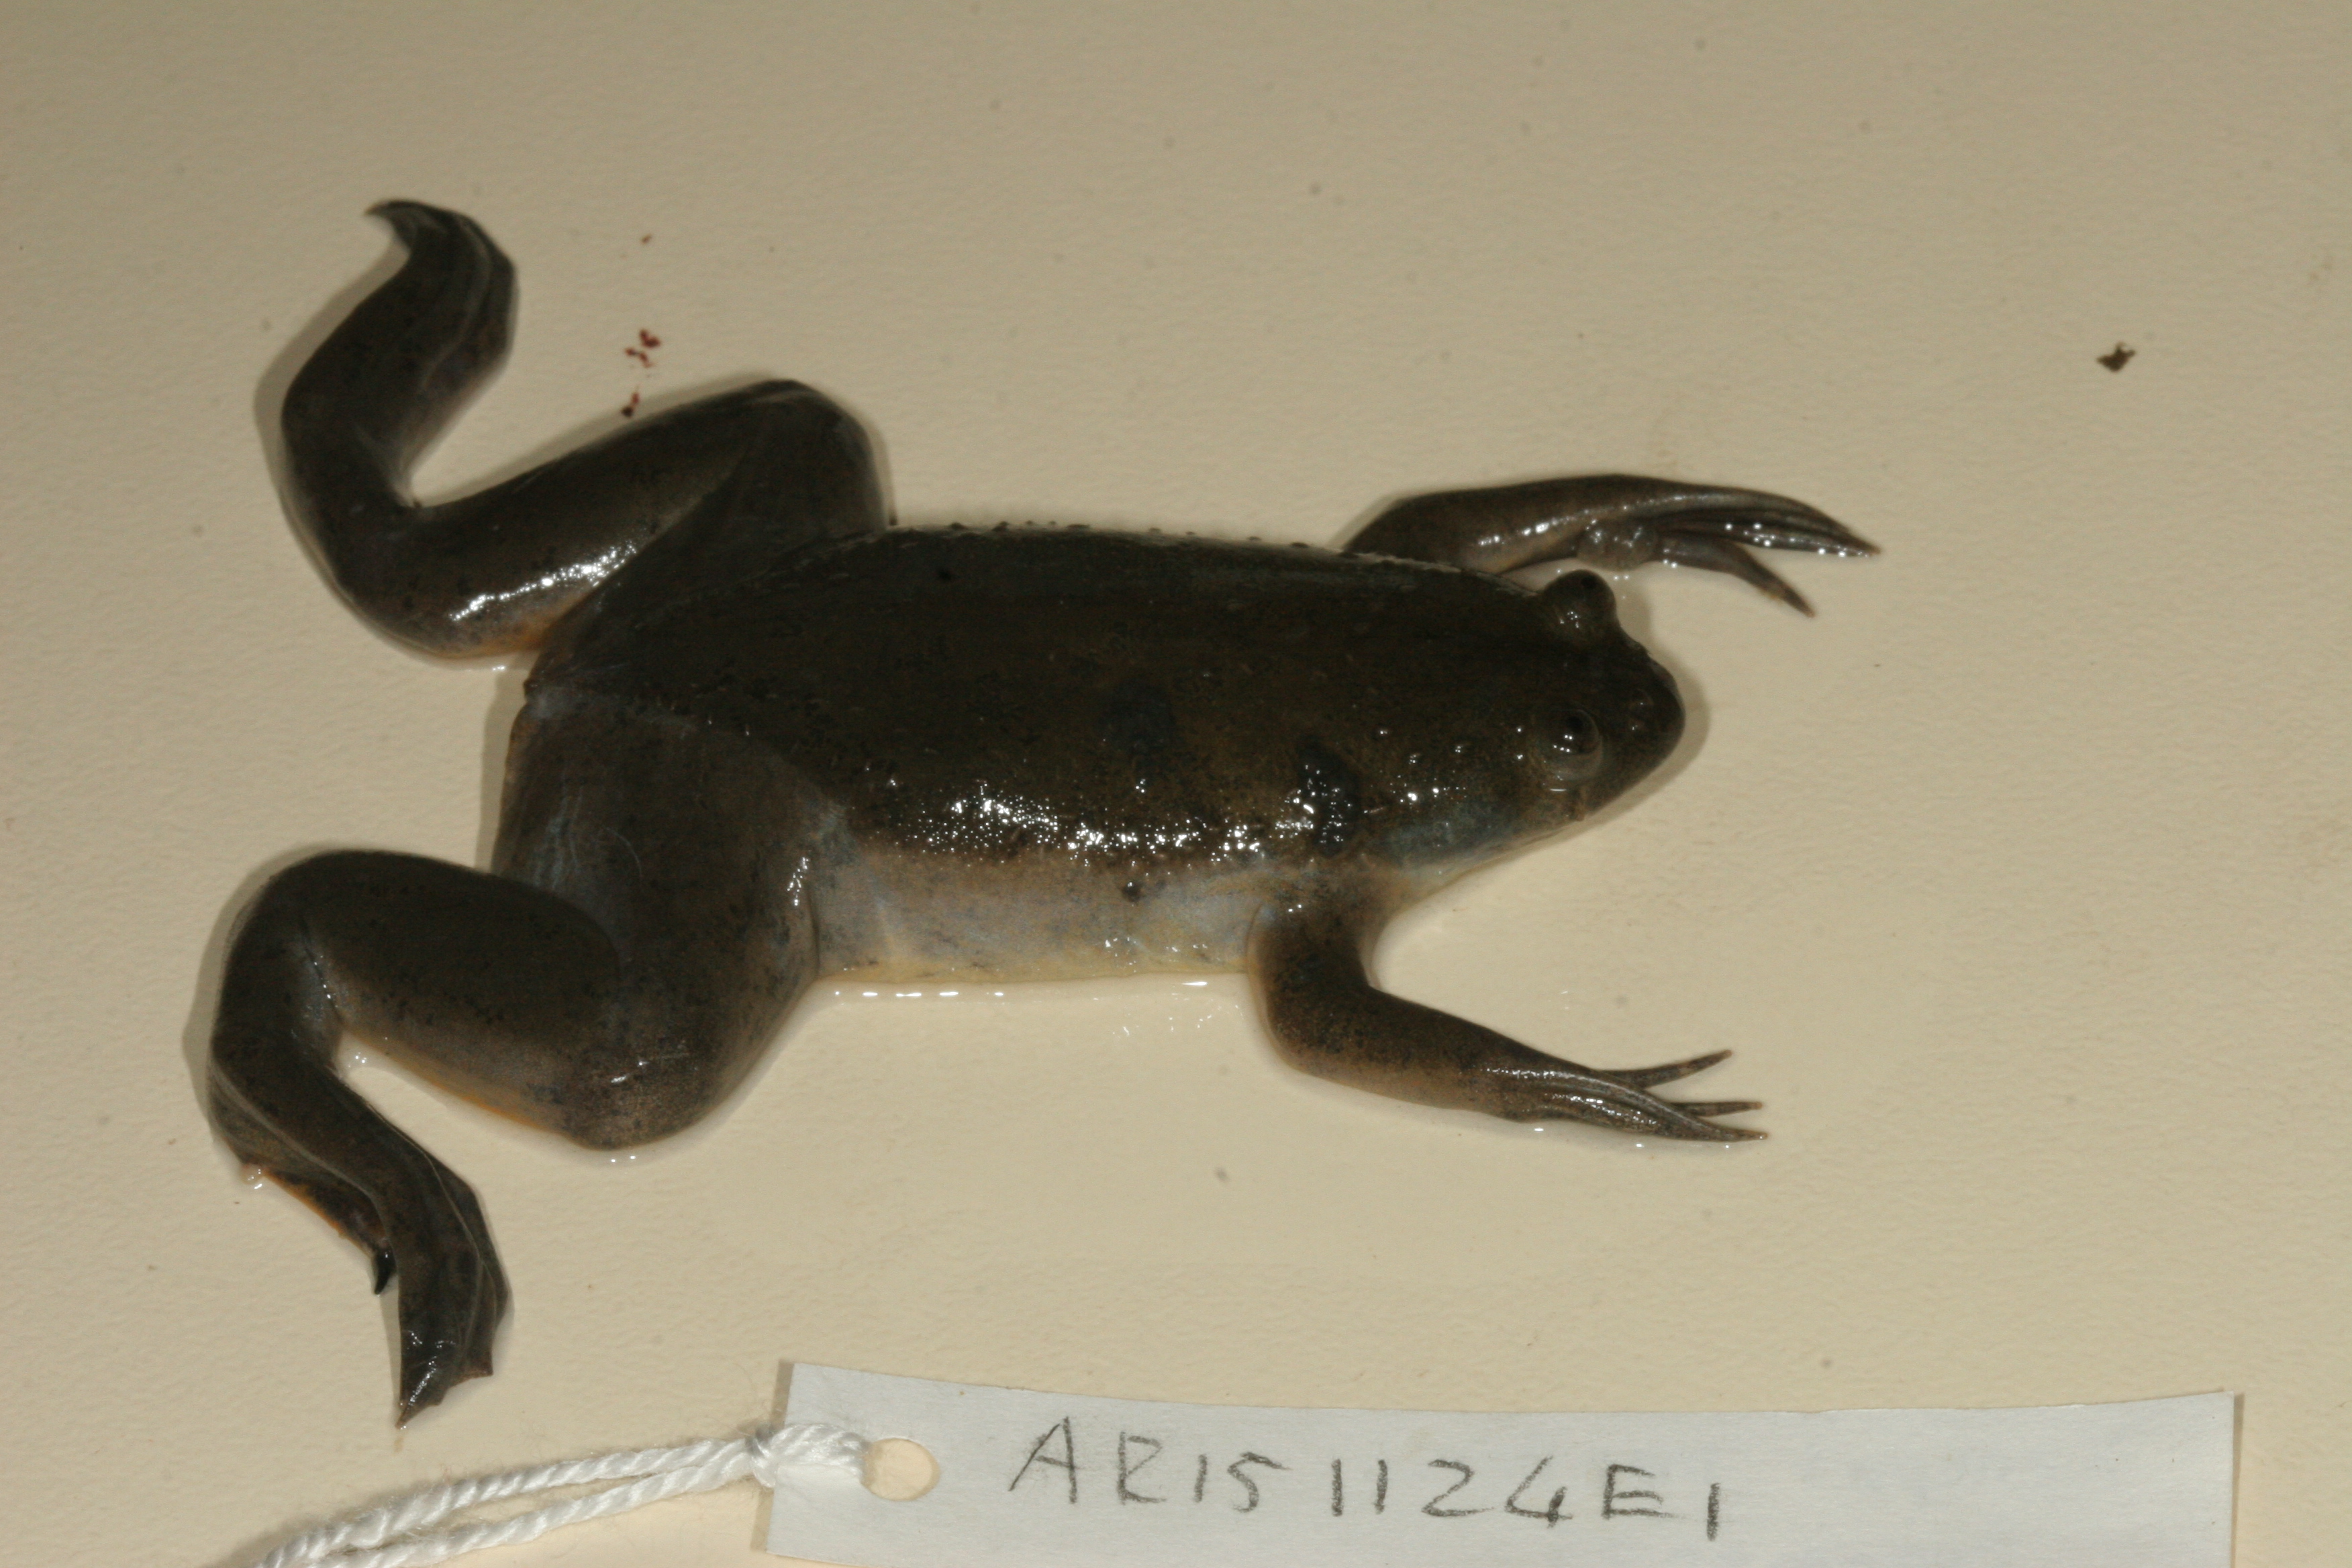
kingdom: Animalia
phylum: Chordata
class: Amphibia
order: Anura
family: Pipidae
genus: Xenopus
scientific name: Xenopus laevis
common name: African clawed frog
